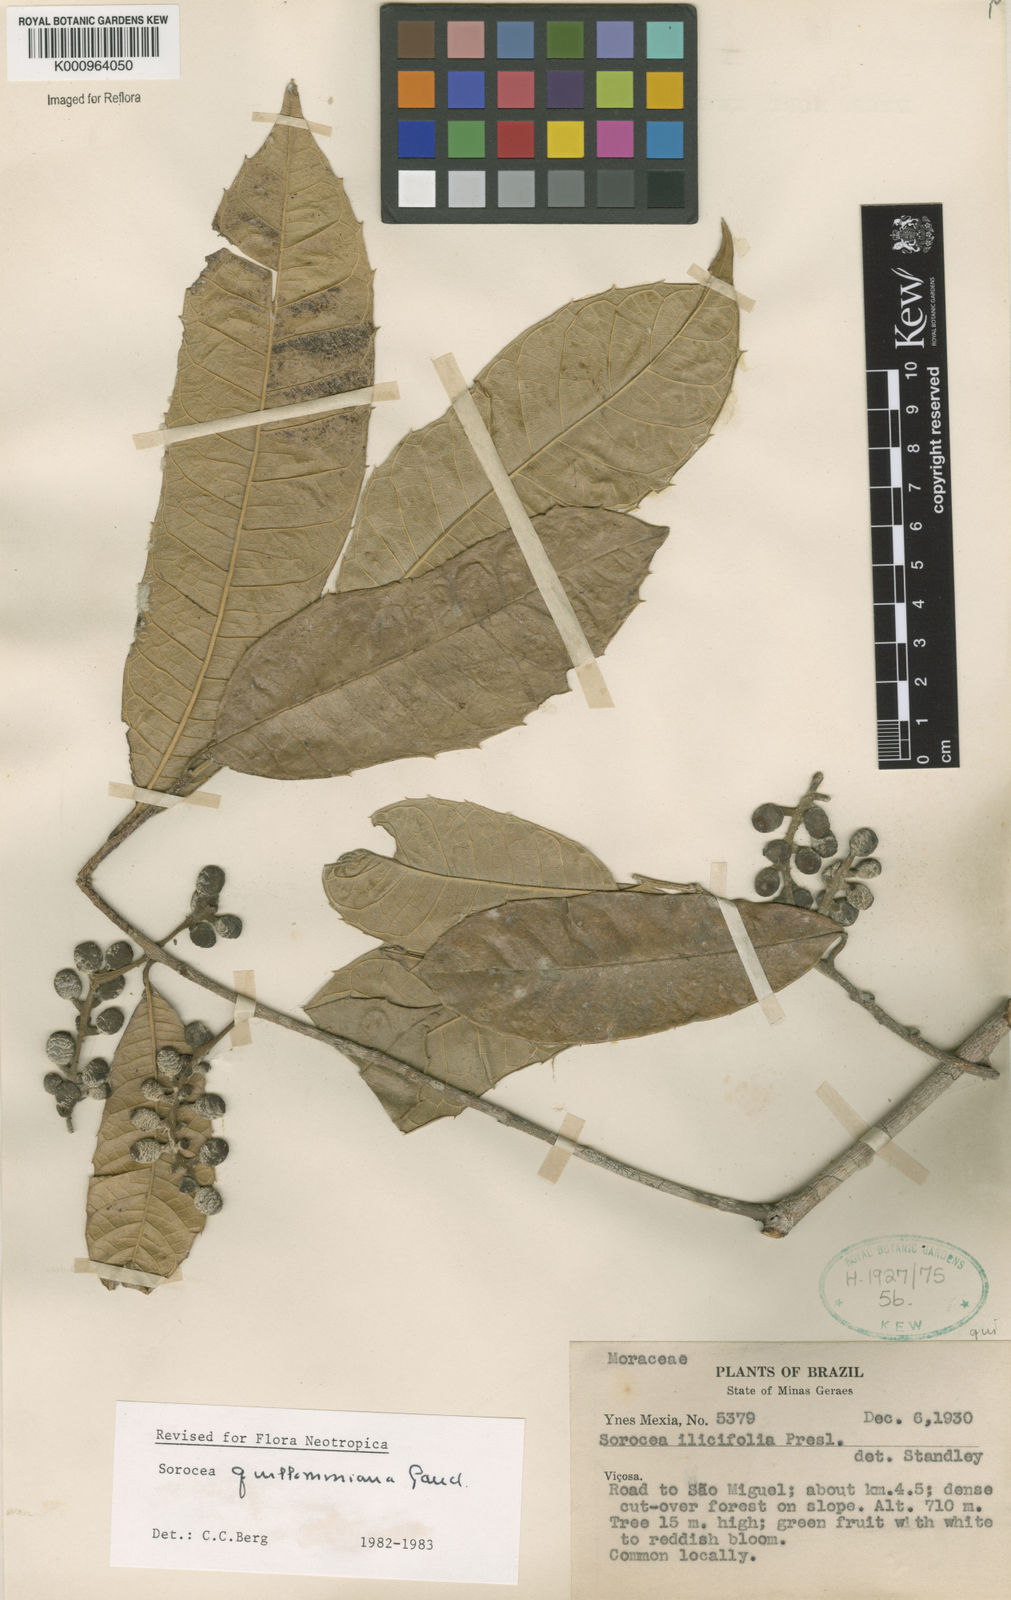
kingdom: Plantae
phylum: Tracheophyta
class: Magnoliopsida
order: Rosales
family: Moraceae
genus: Sorocea
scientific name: Sorocea guilleminiana
